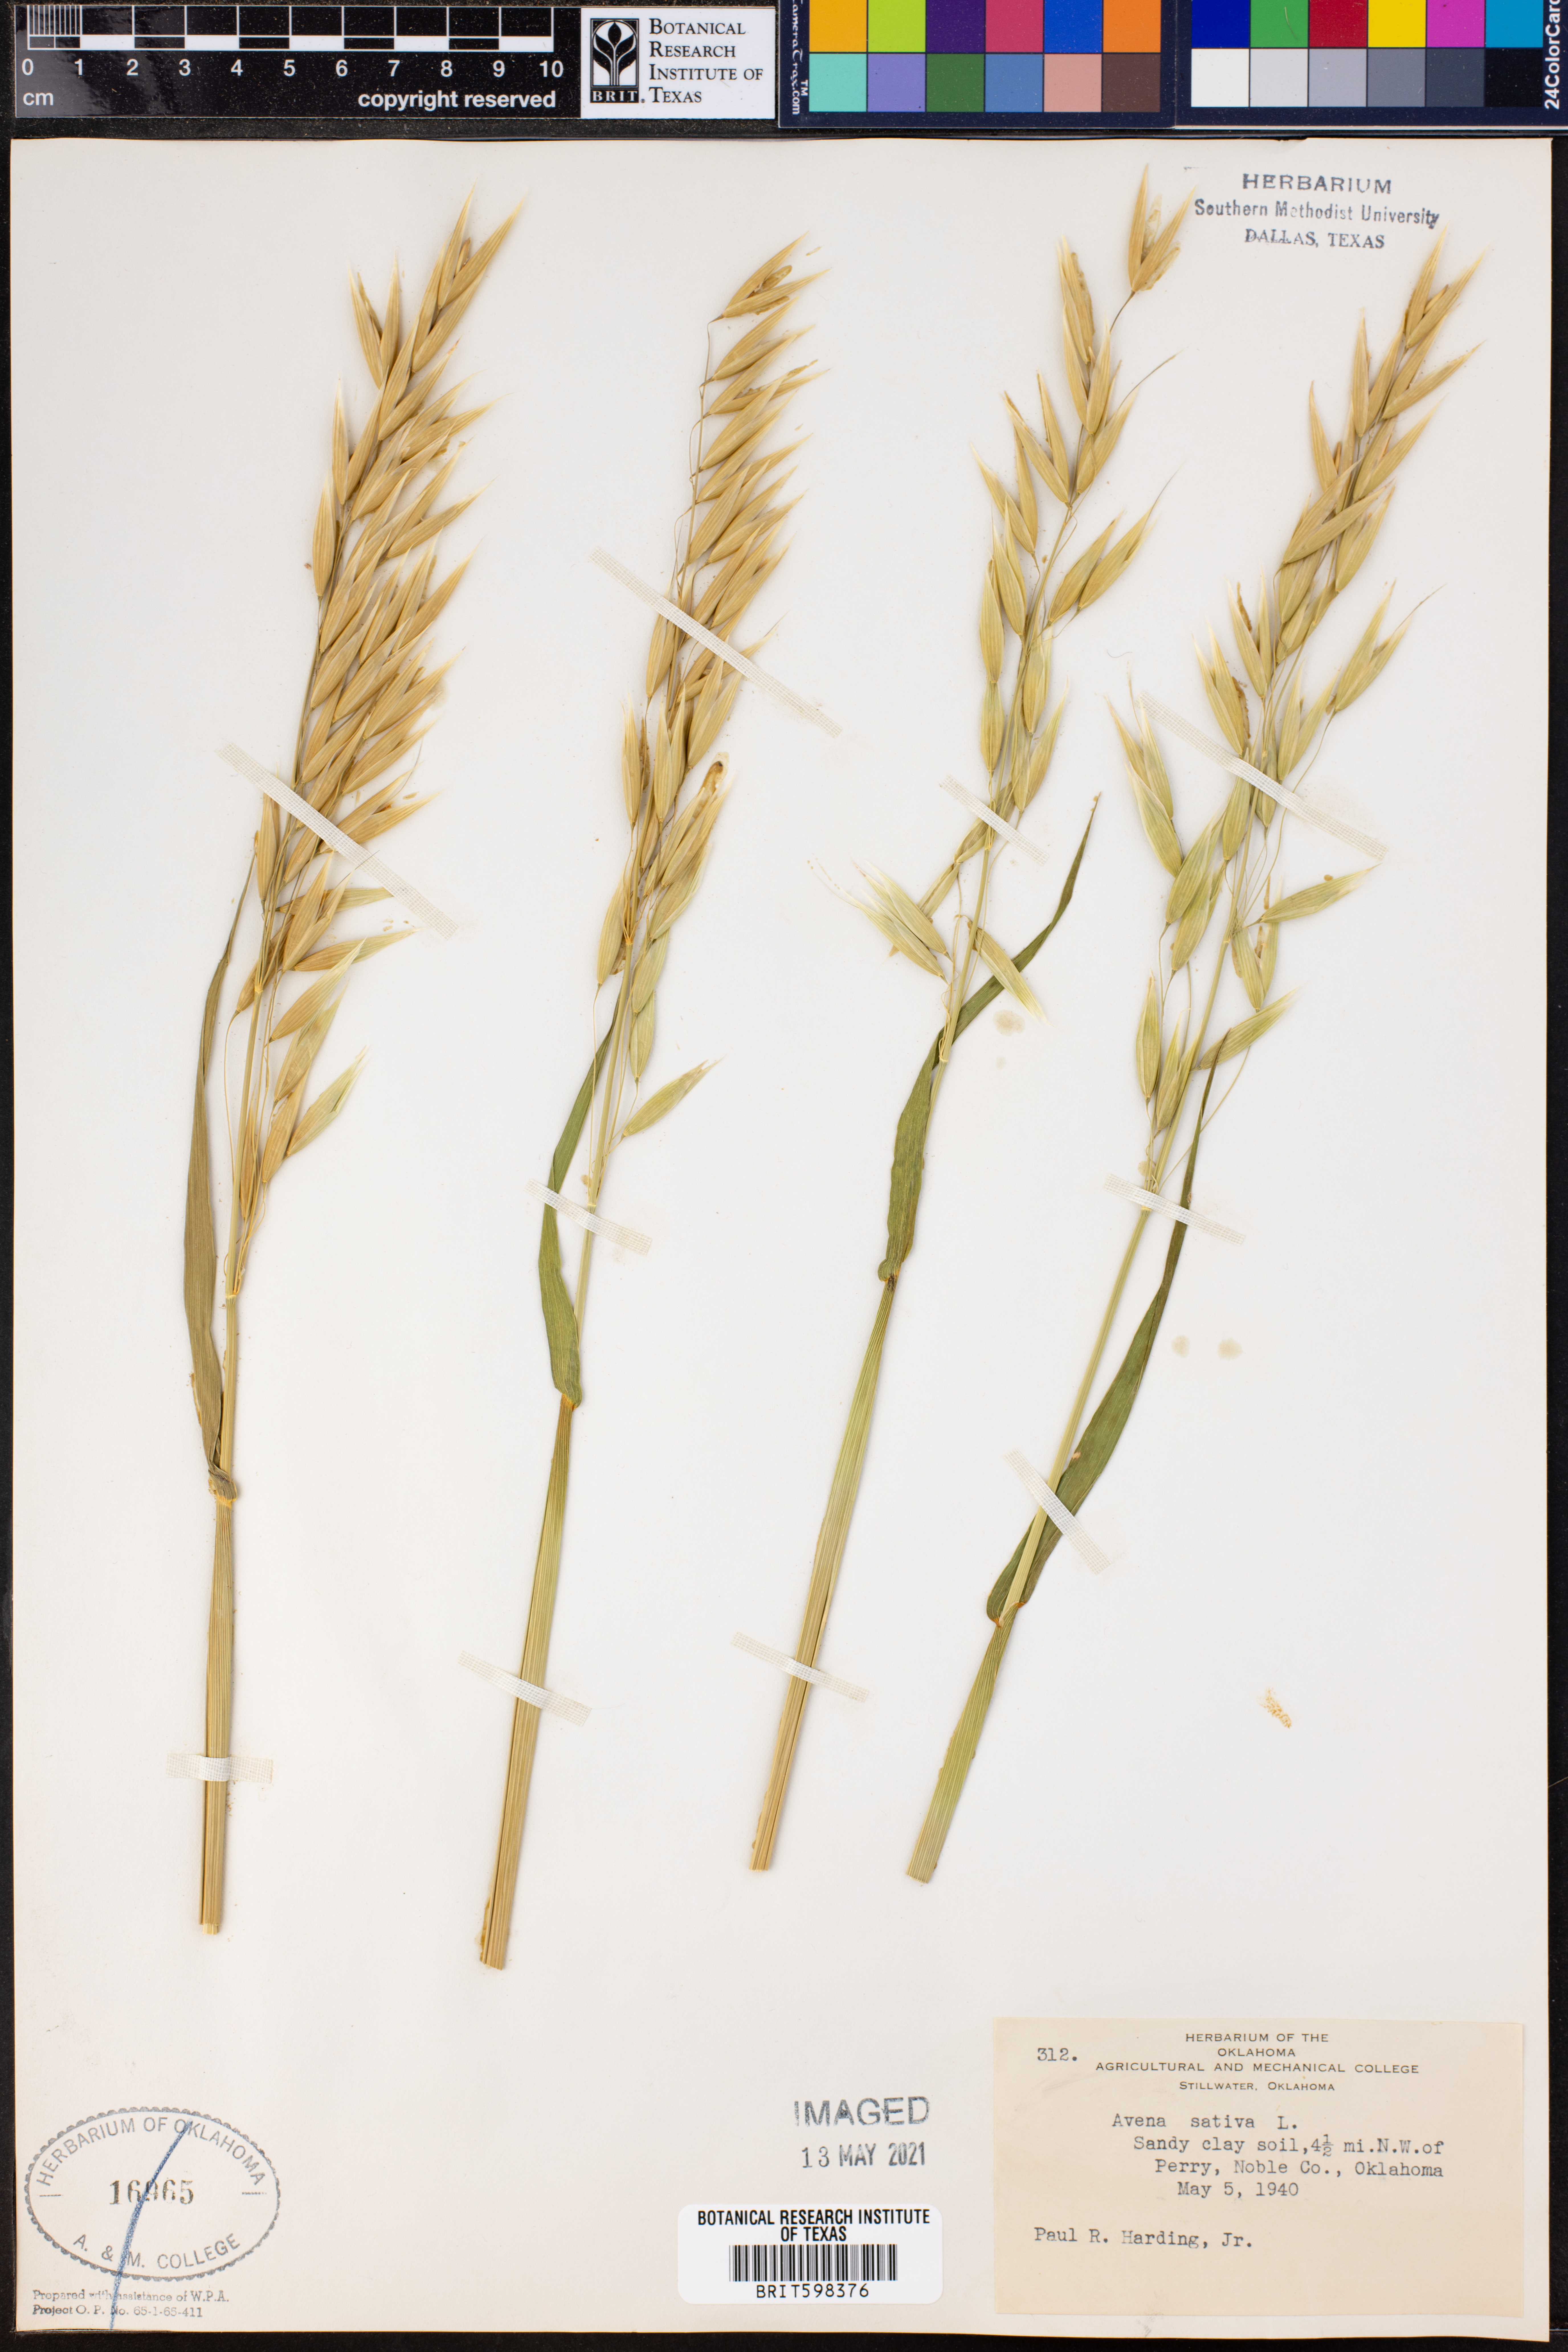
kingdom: Plantae
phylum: Tracheophyta
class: Liliopsida
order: Poales
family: Poaceae
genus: Avena
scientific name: Avena sativa
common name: Oat
